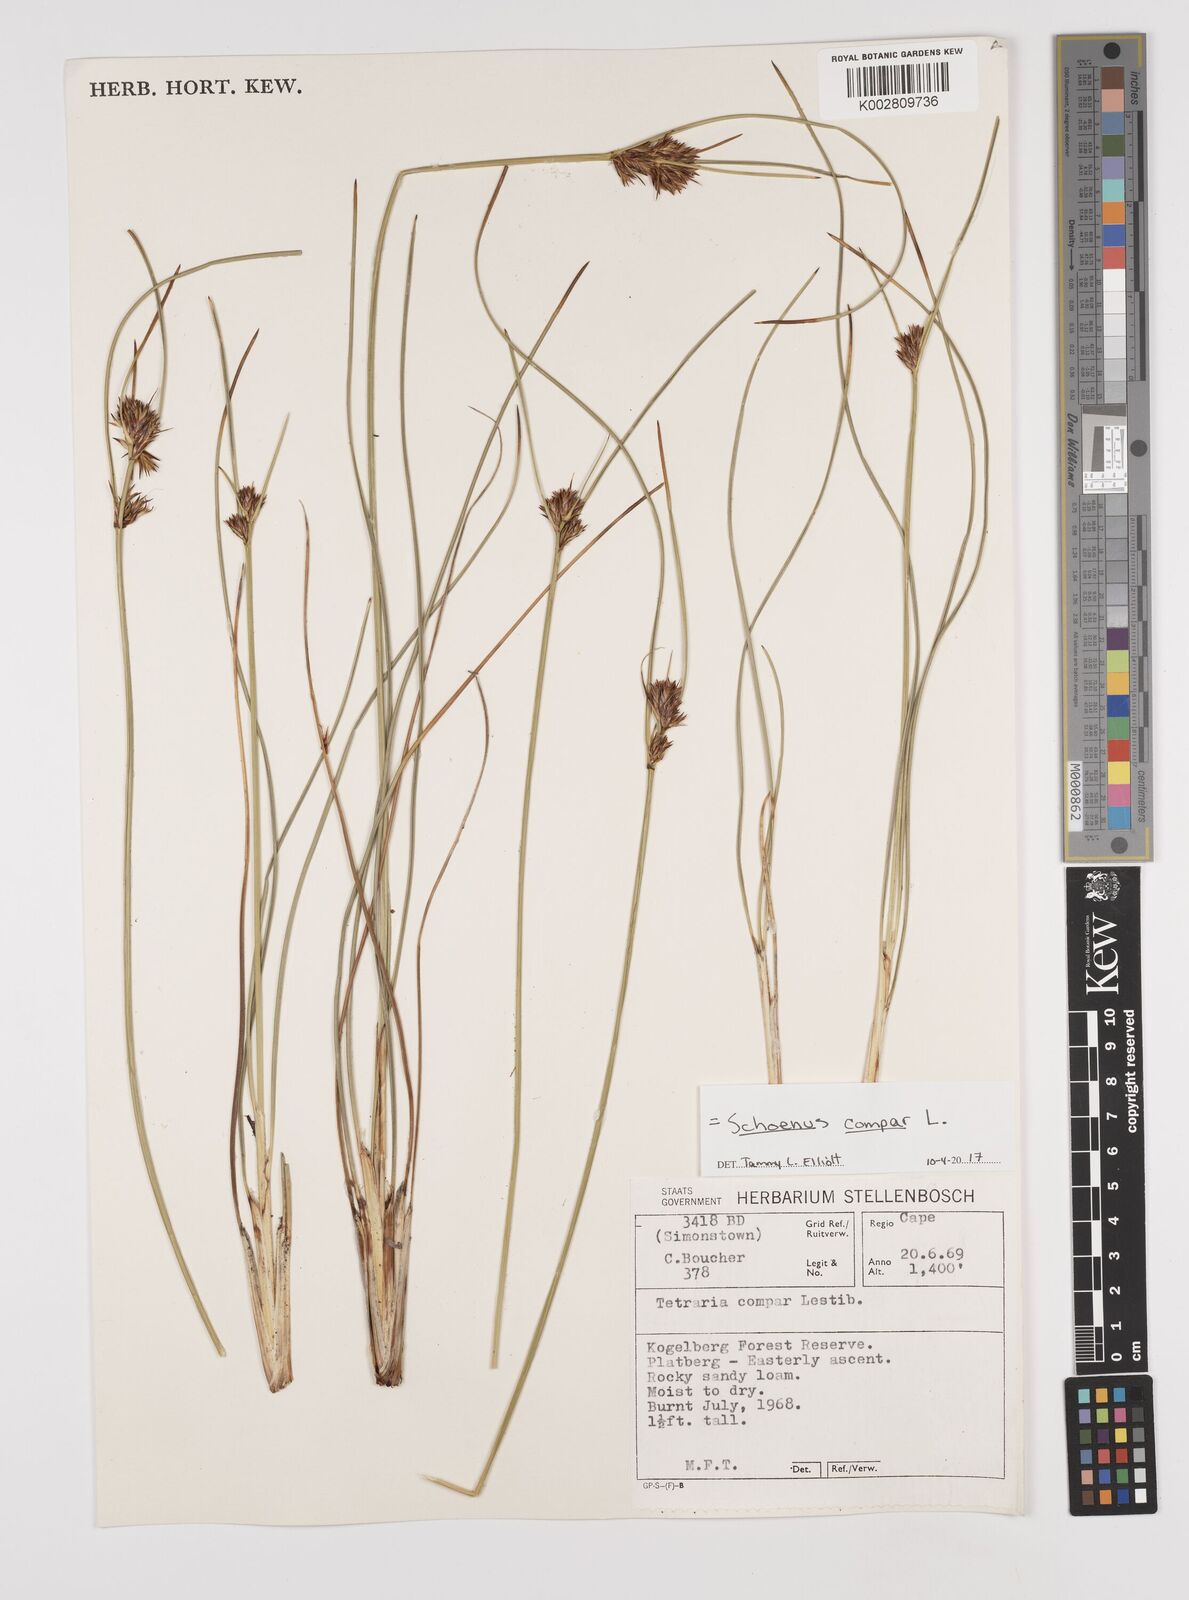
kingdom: Plantae
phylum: Tracheophyta
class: Liliopsida
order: Poales
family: Cyperaceae
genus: Schoenus
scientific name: Schoenus compar
